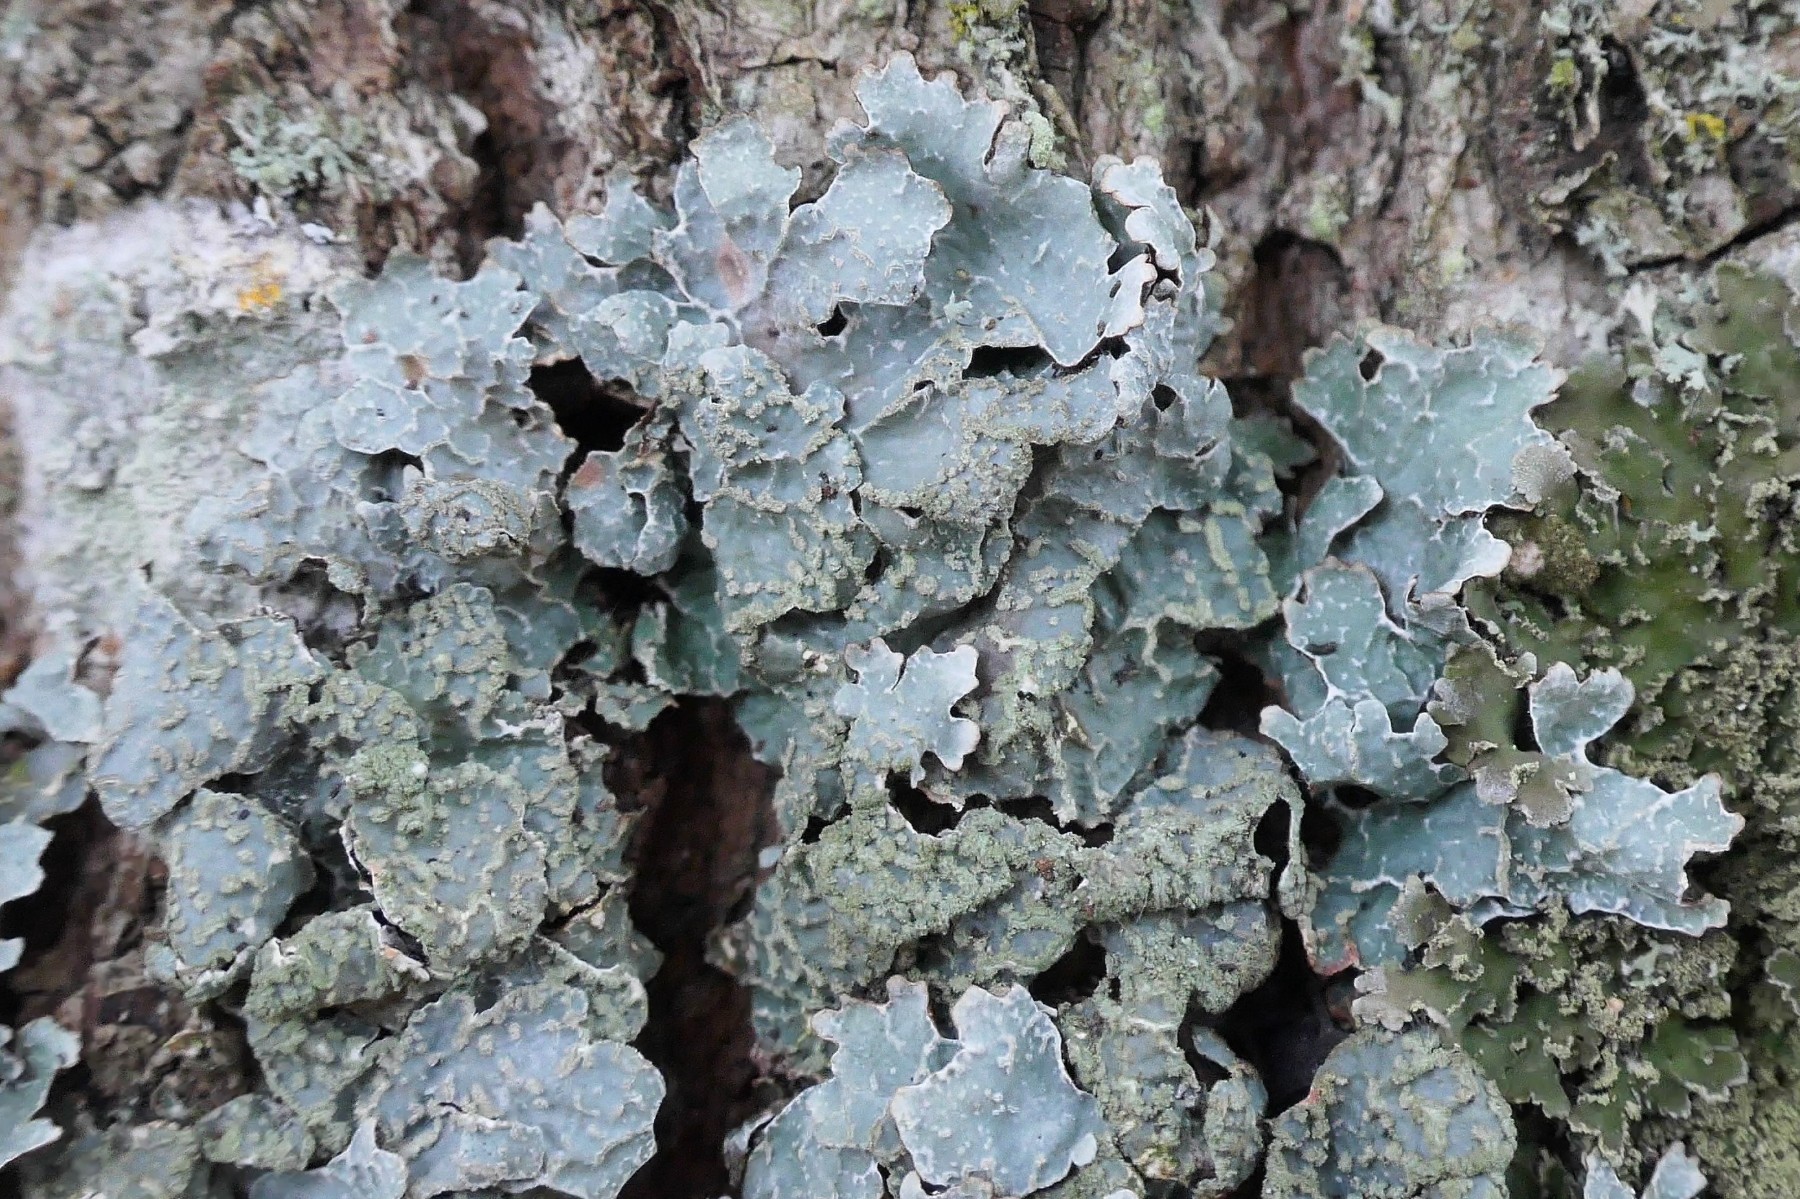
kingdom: Fungi
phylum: Ascomycota
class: Lecanoromycetes
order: Lecanorales
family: Parmeliaceae
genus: Parmelia
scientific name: Parmelia sulcata
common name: rynket skållav
